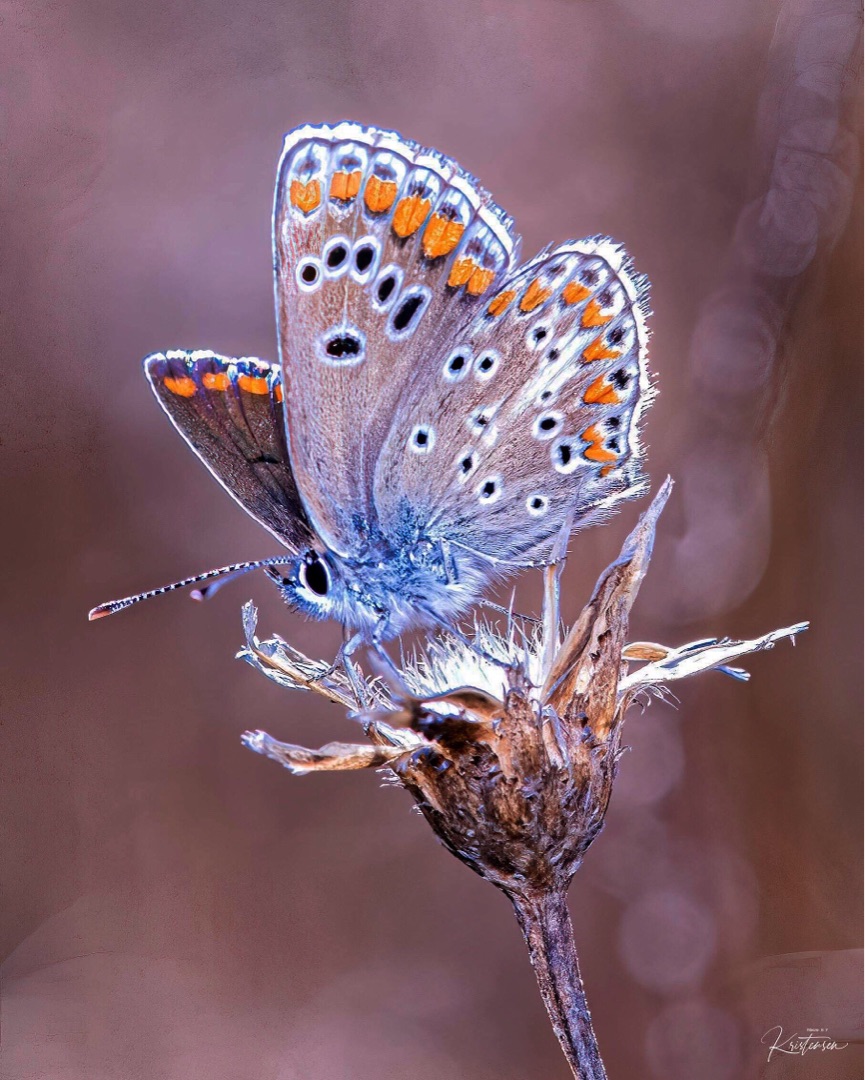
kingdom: Animalia
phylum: Arthropoda
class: Insecta
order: Lepidoptera
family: Lycaenidae
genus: Aricia
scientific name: Aricia agestis
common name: Rødplettet blåfugl
